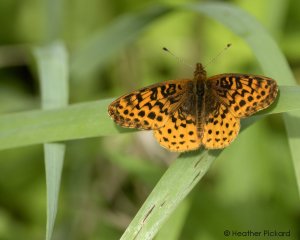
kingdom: Animalia
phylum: Arthropoda
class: Insecta
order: Lepidoptera
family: Nymphalidae
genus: Clossiana
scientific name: Clossiana toddi
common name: Meadow Fritillary
